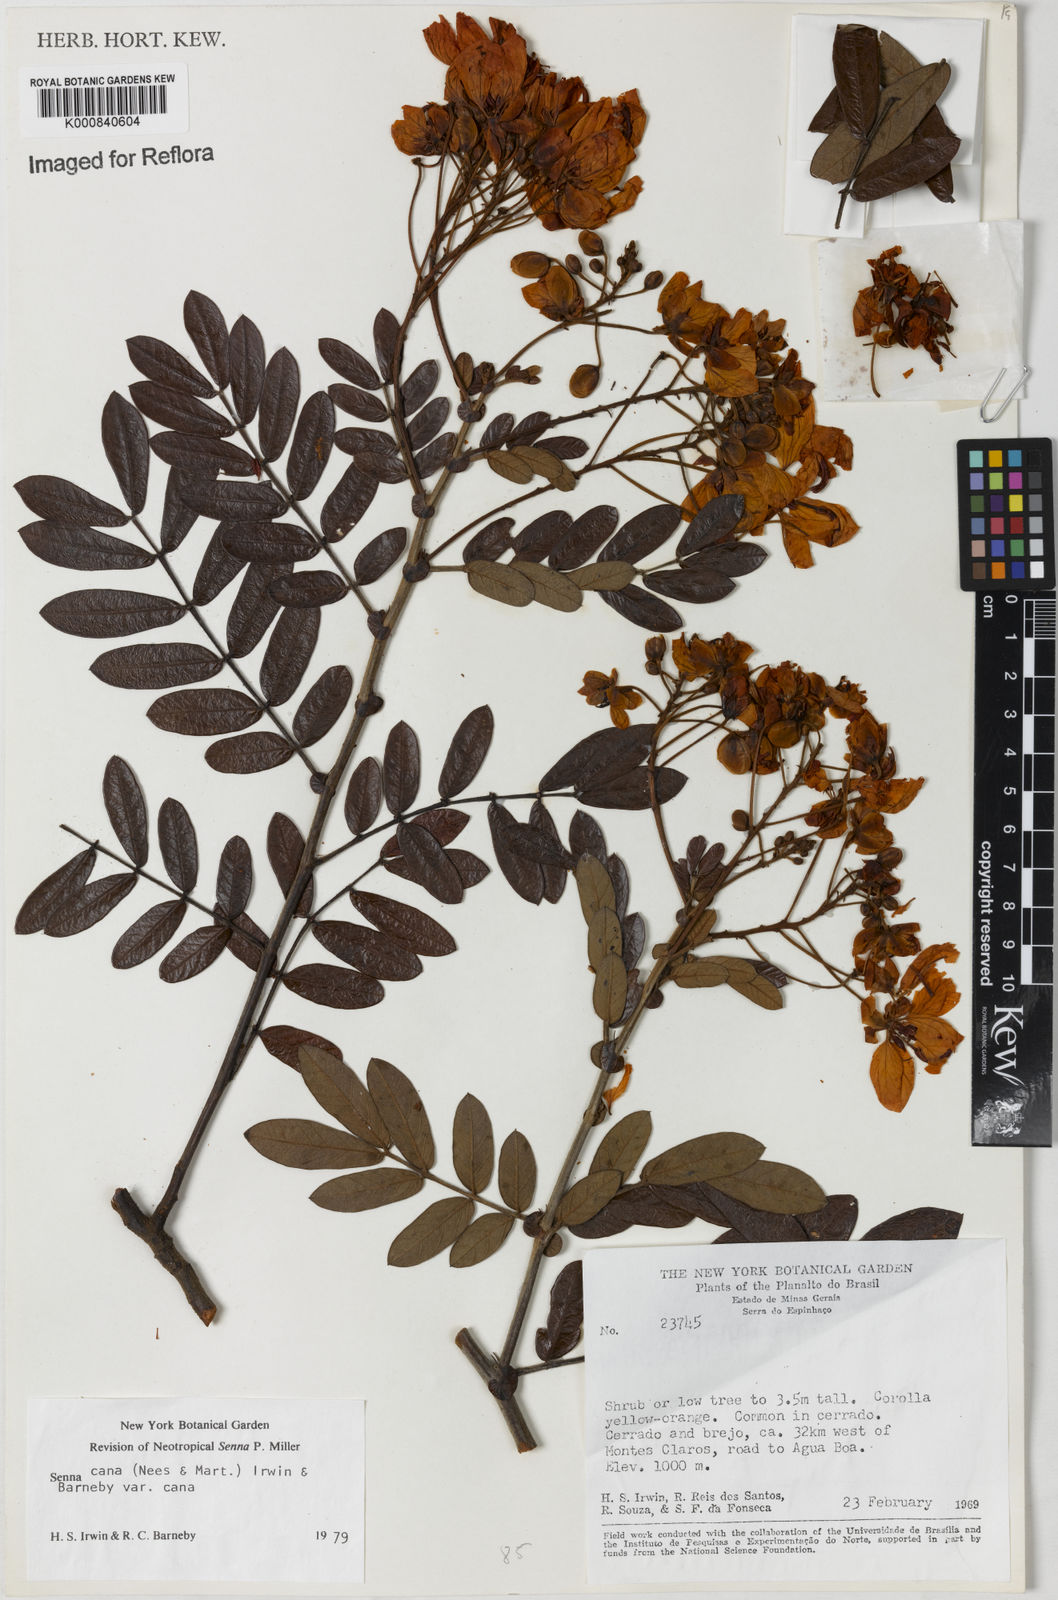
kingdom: Plantae
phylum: Tracheophyta
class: Magnoliopsida
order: Fabales
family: Fabaceae
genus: Senna
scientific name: Senna cana
